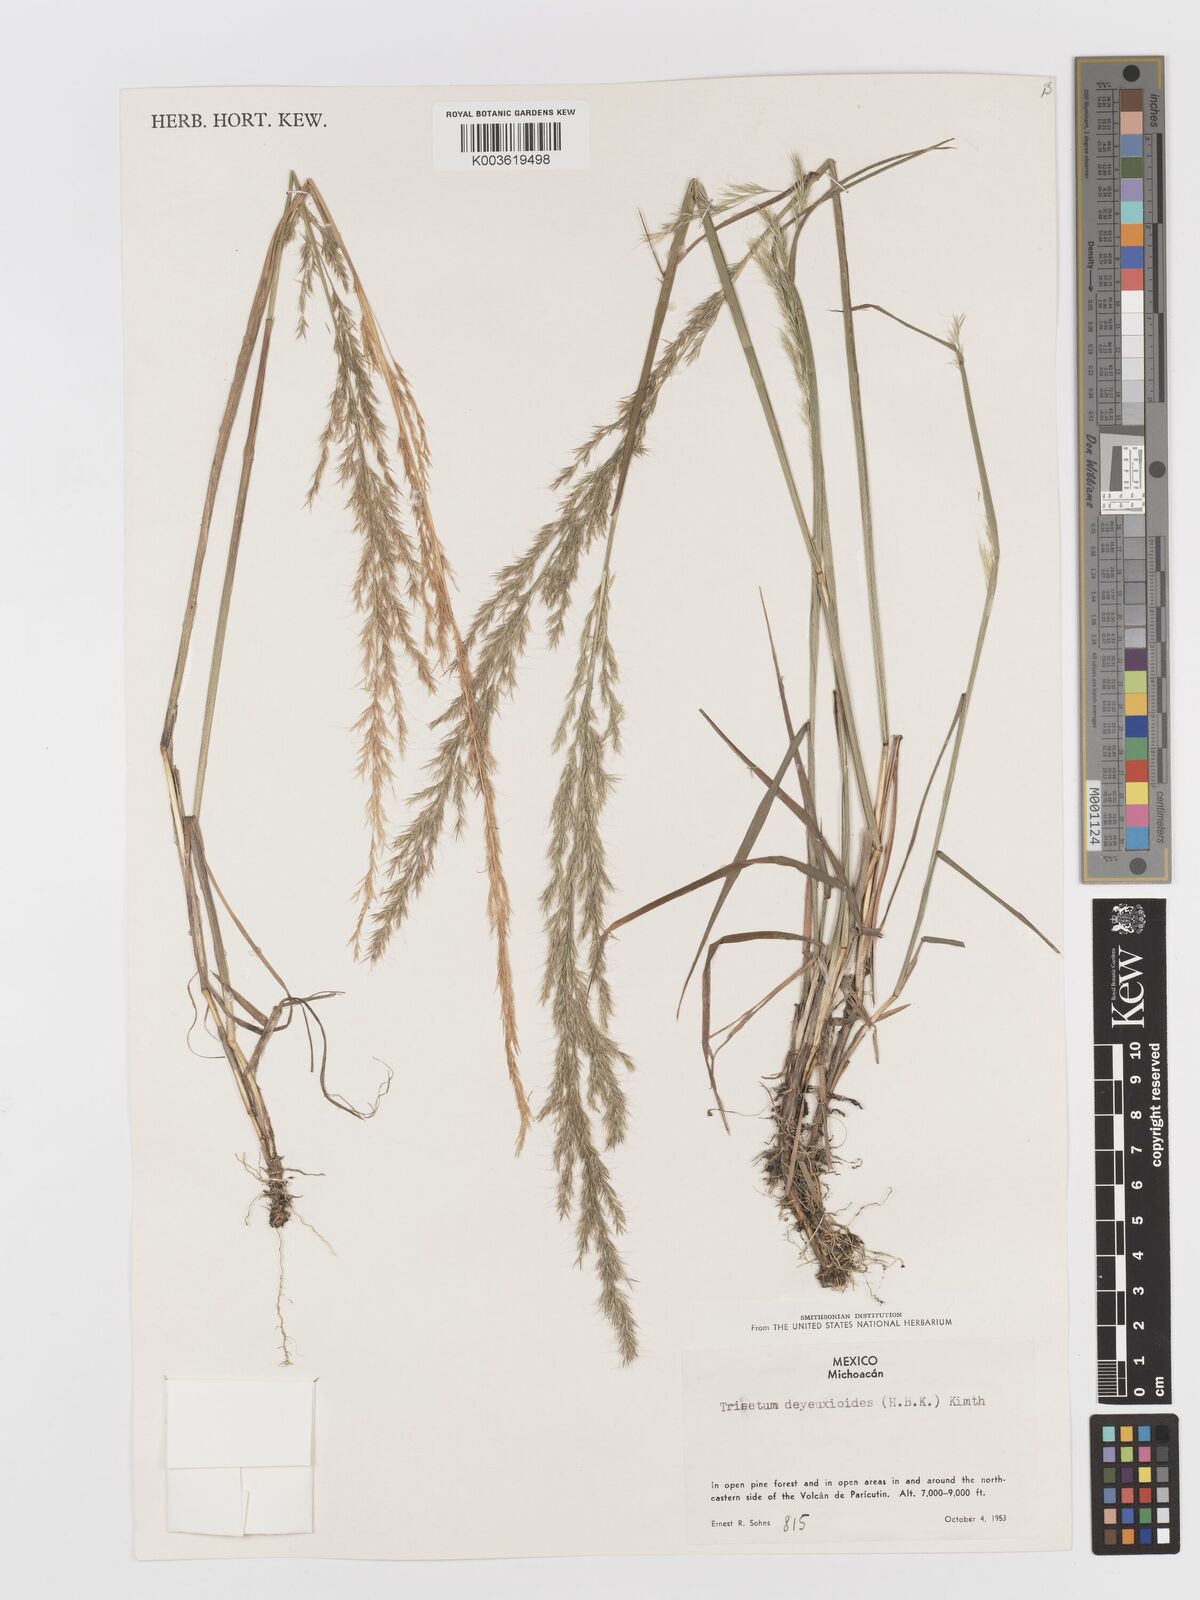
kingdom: Plantae
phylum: Tracheophyta
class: Liliopsida
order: Poales
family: Poaceae
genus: Peyritschia
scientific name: Peyritschia deyeuxioides
